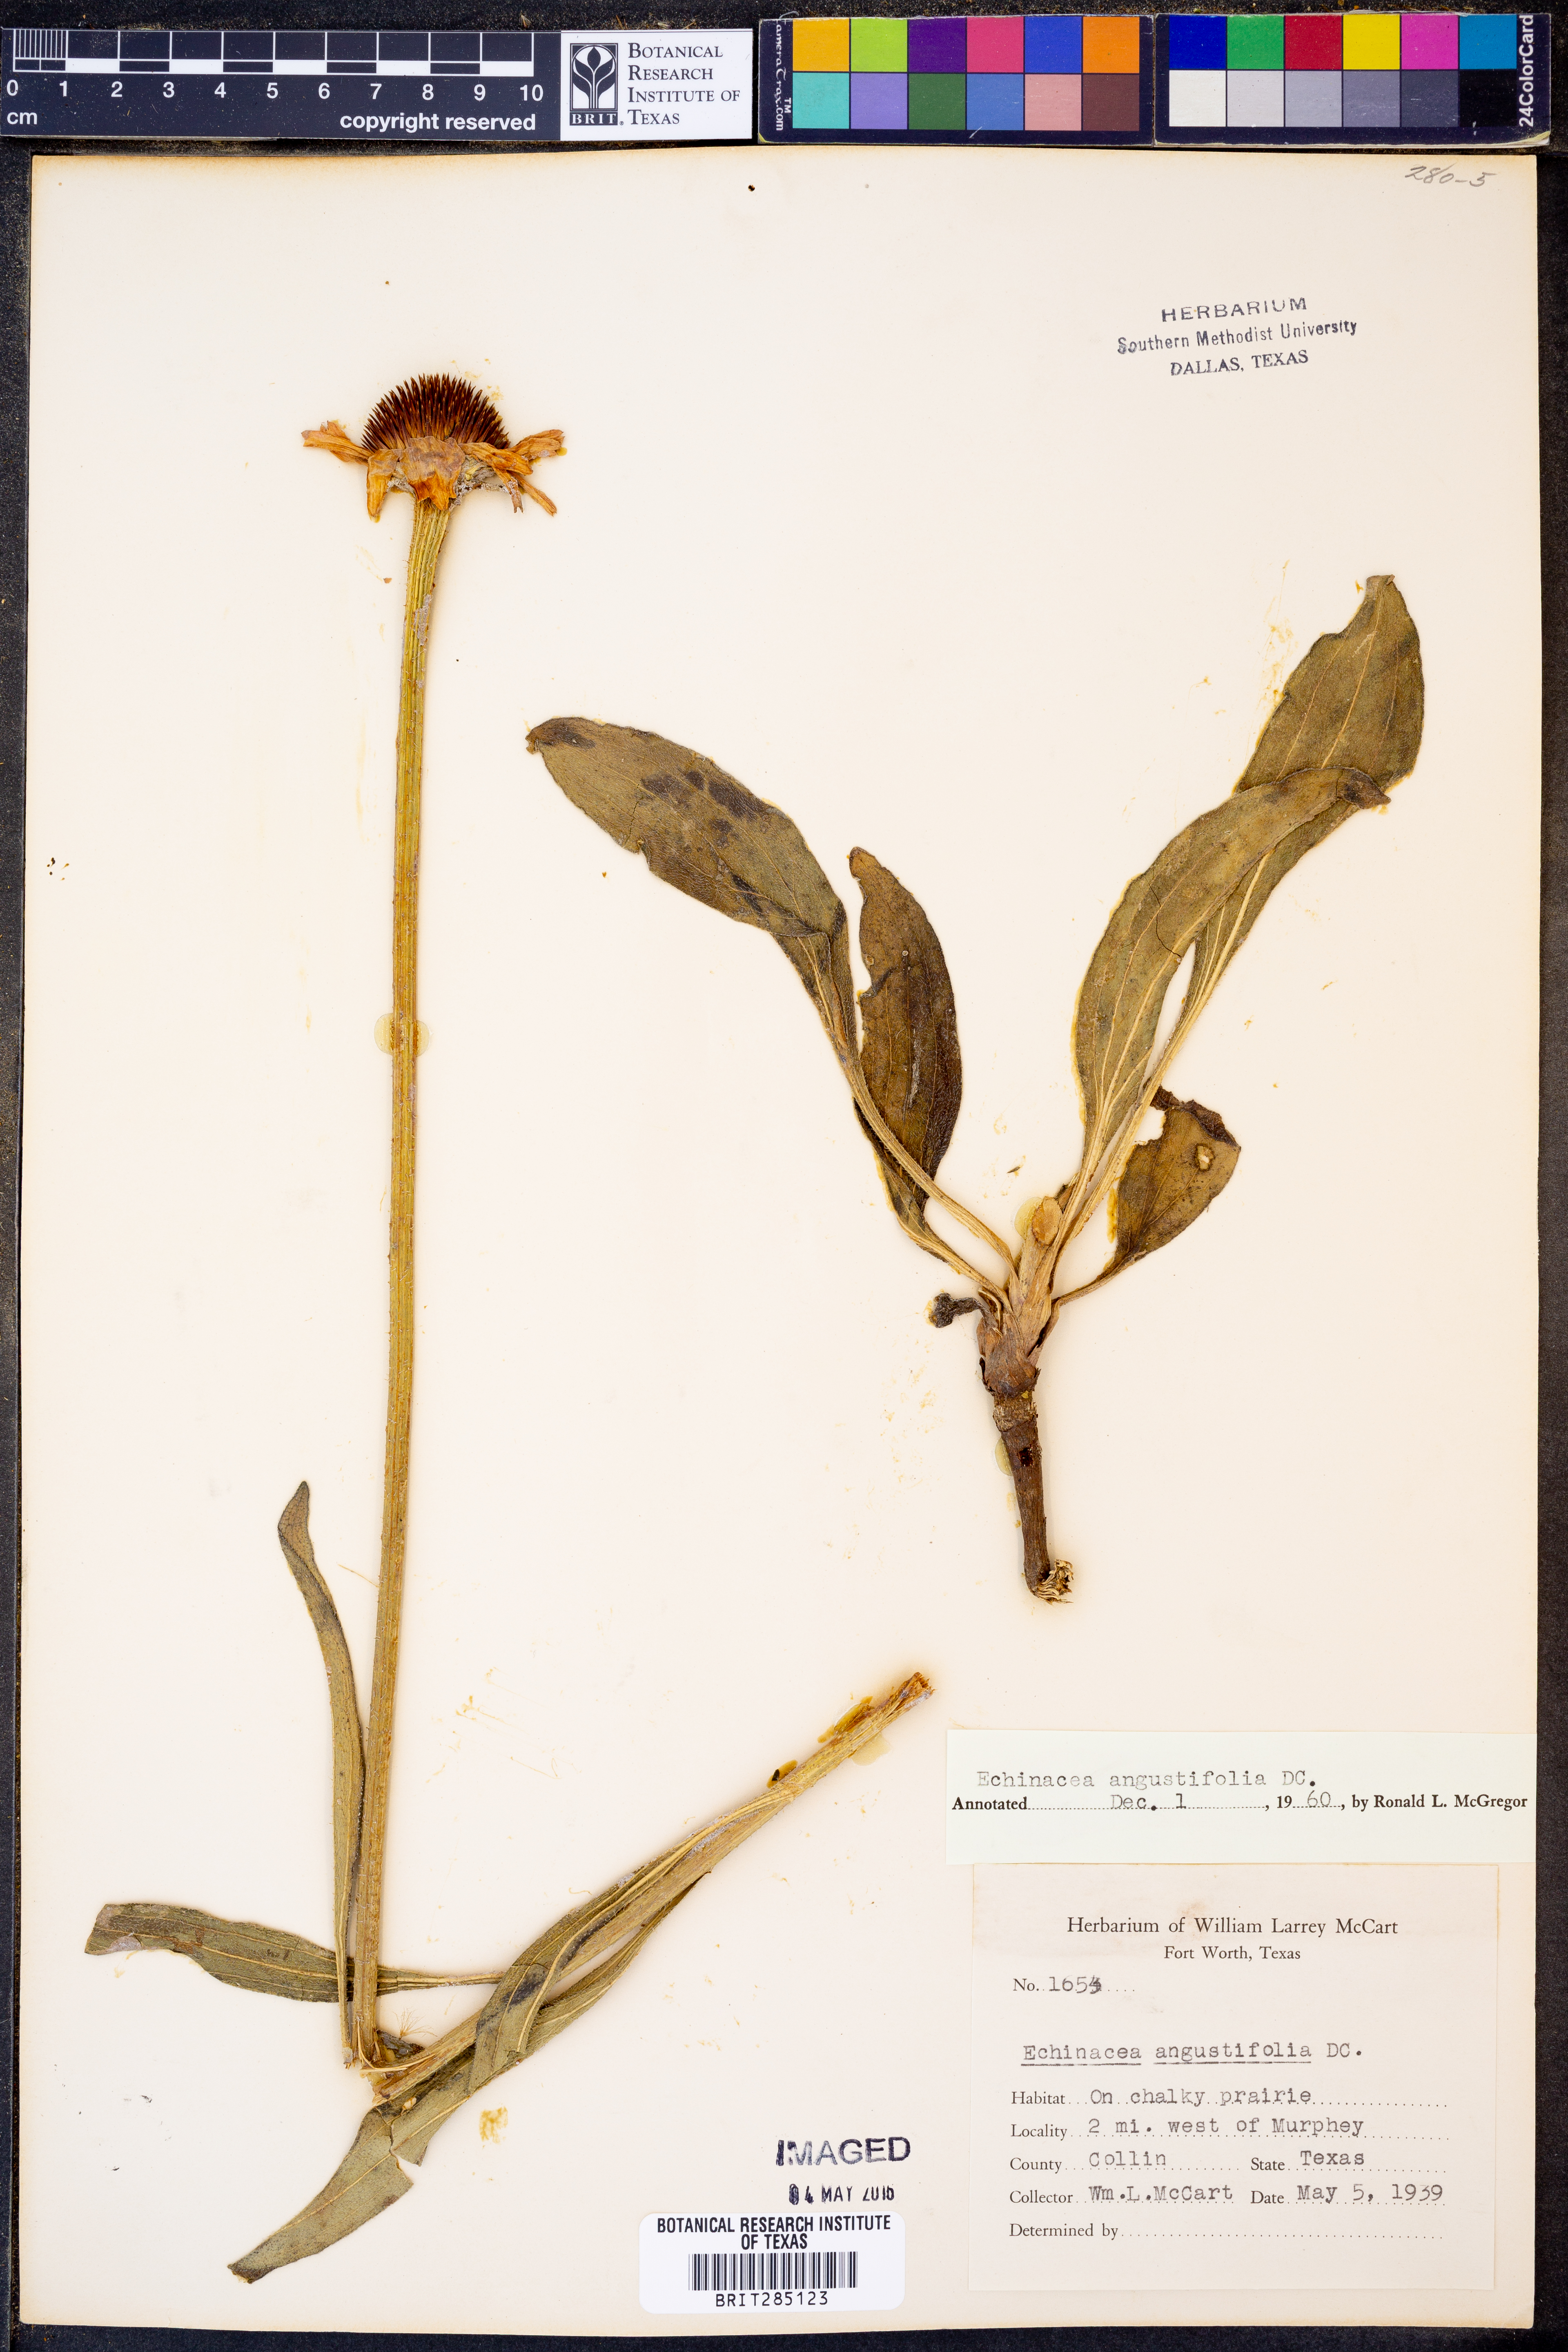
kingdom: Plantae
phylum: Tracheophyta
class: Magnoliopsida
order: Asterales
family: Asteraceae
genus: Echinacea
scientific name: Echinacea angustifolia
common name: Black-sampson echinacea
